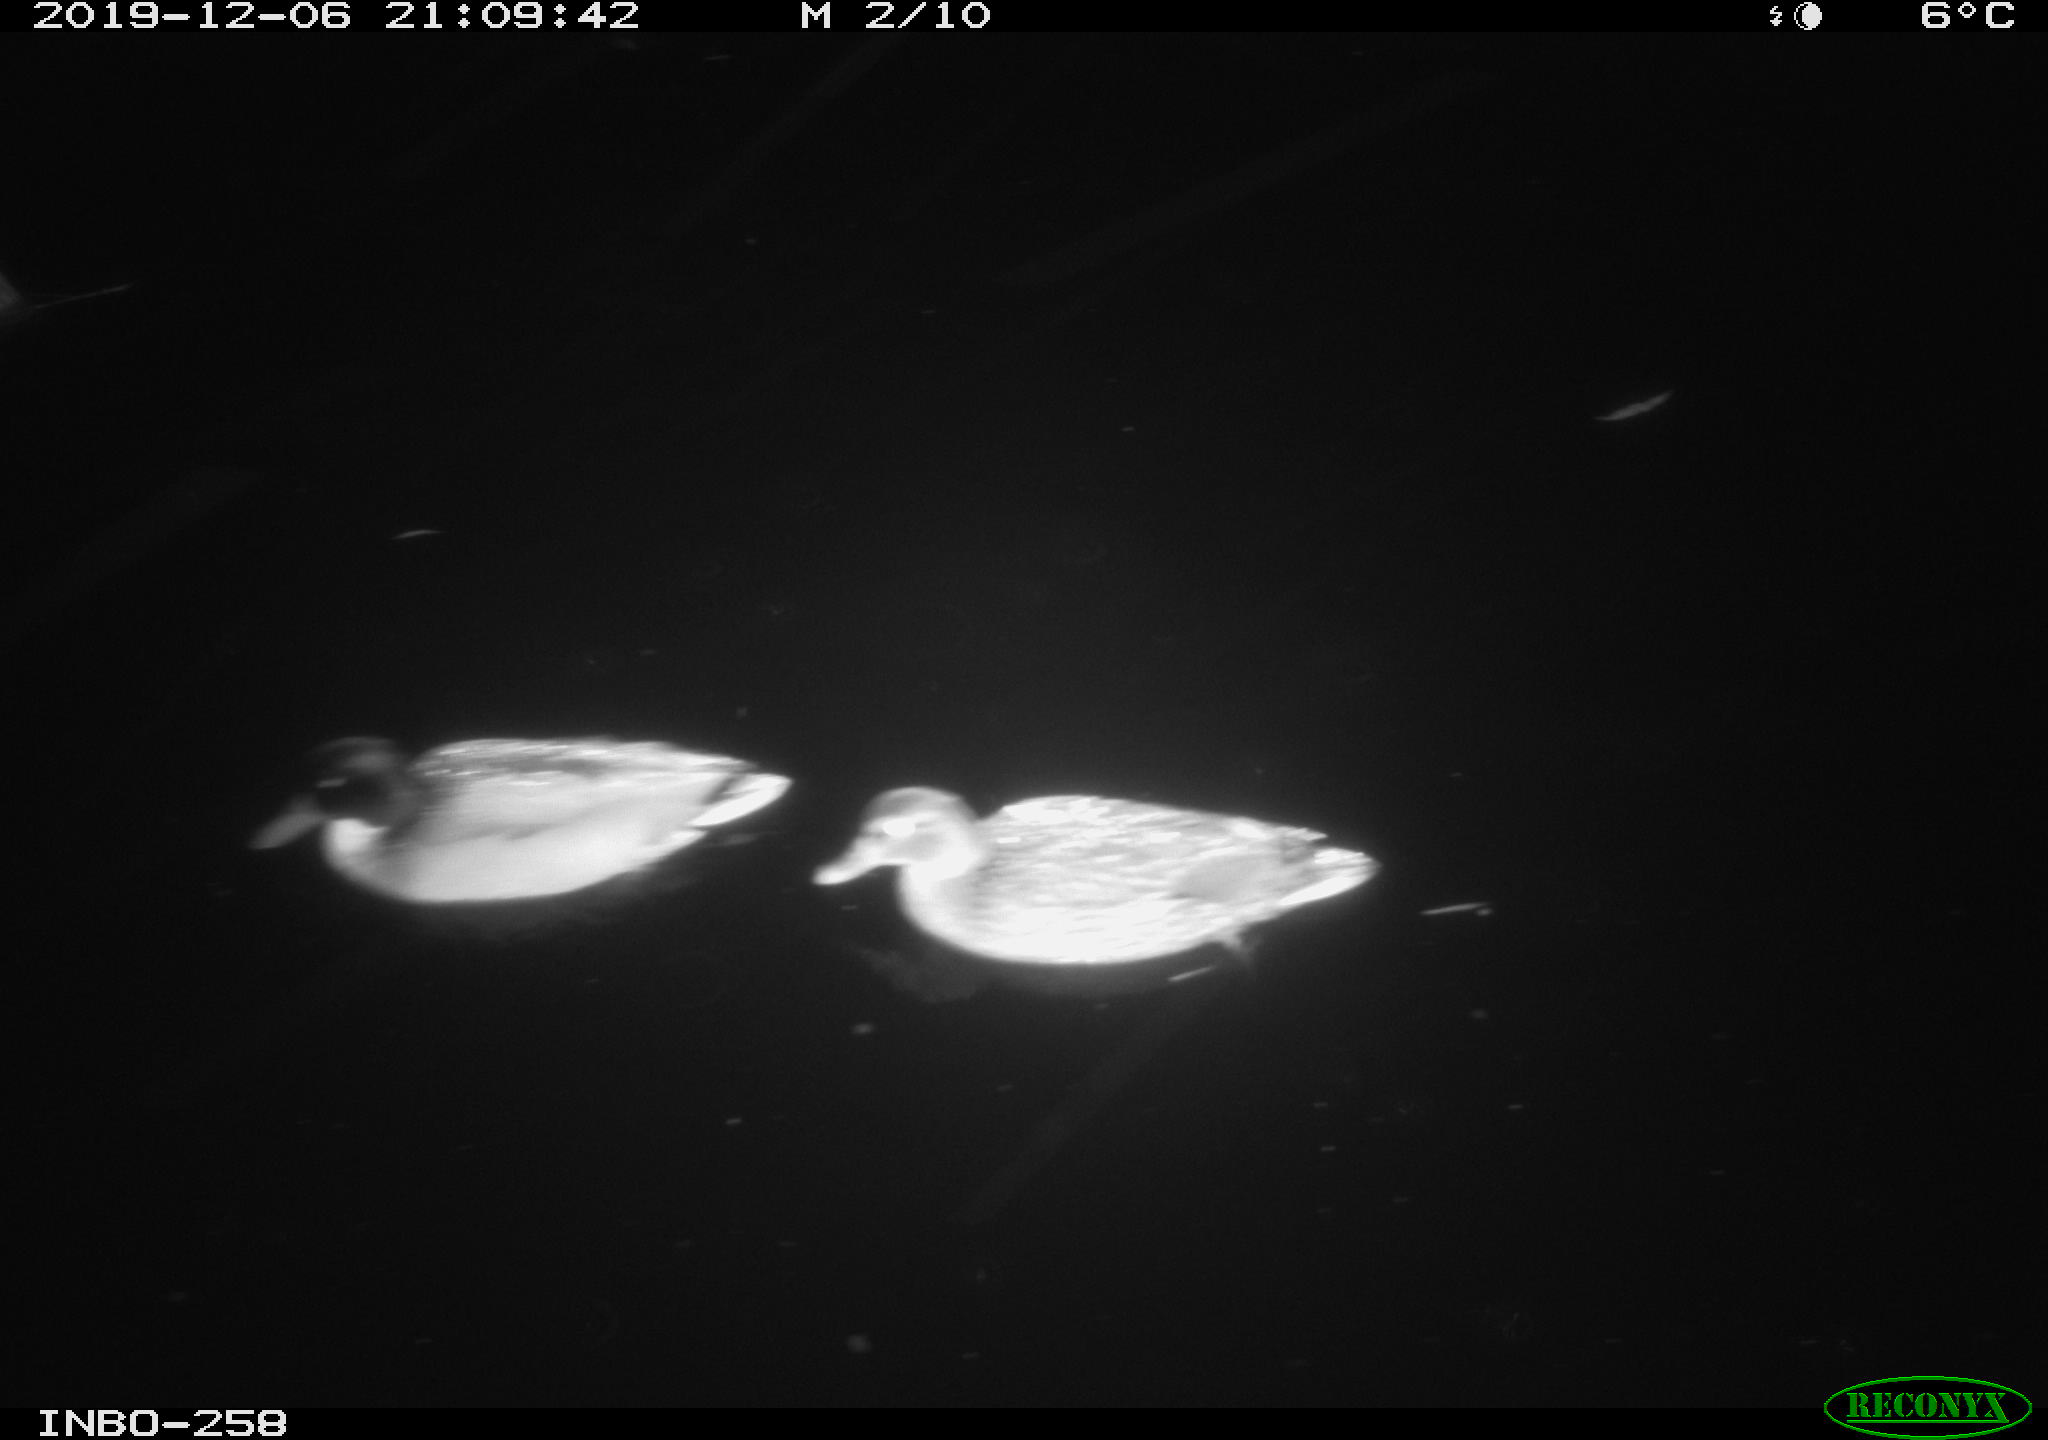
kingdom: Animalia
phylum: Chordata
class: Aves
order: Anseriformes
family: Anatidae
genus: Anas
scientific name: Anas platyrhynchos
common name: Mallard
